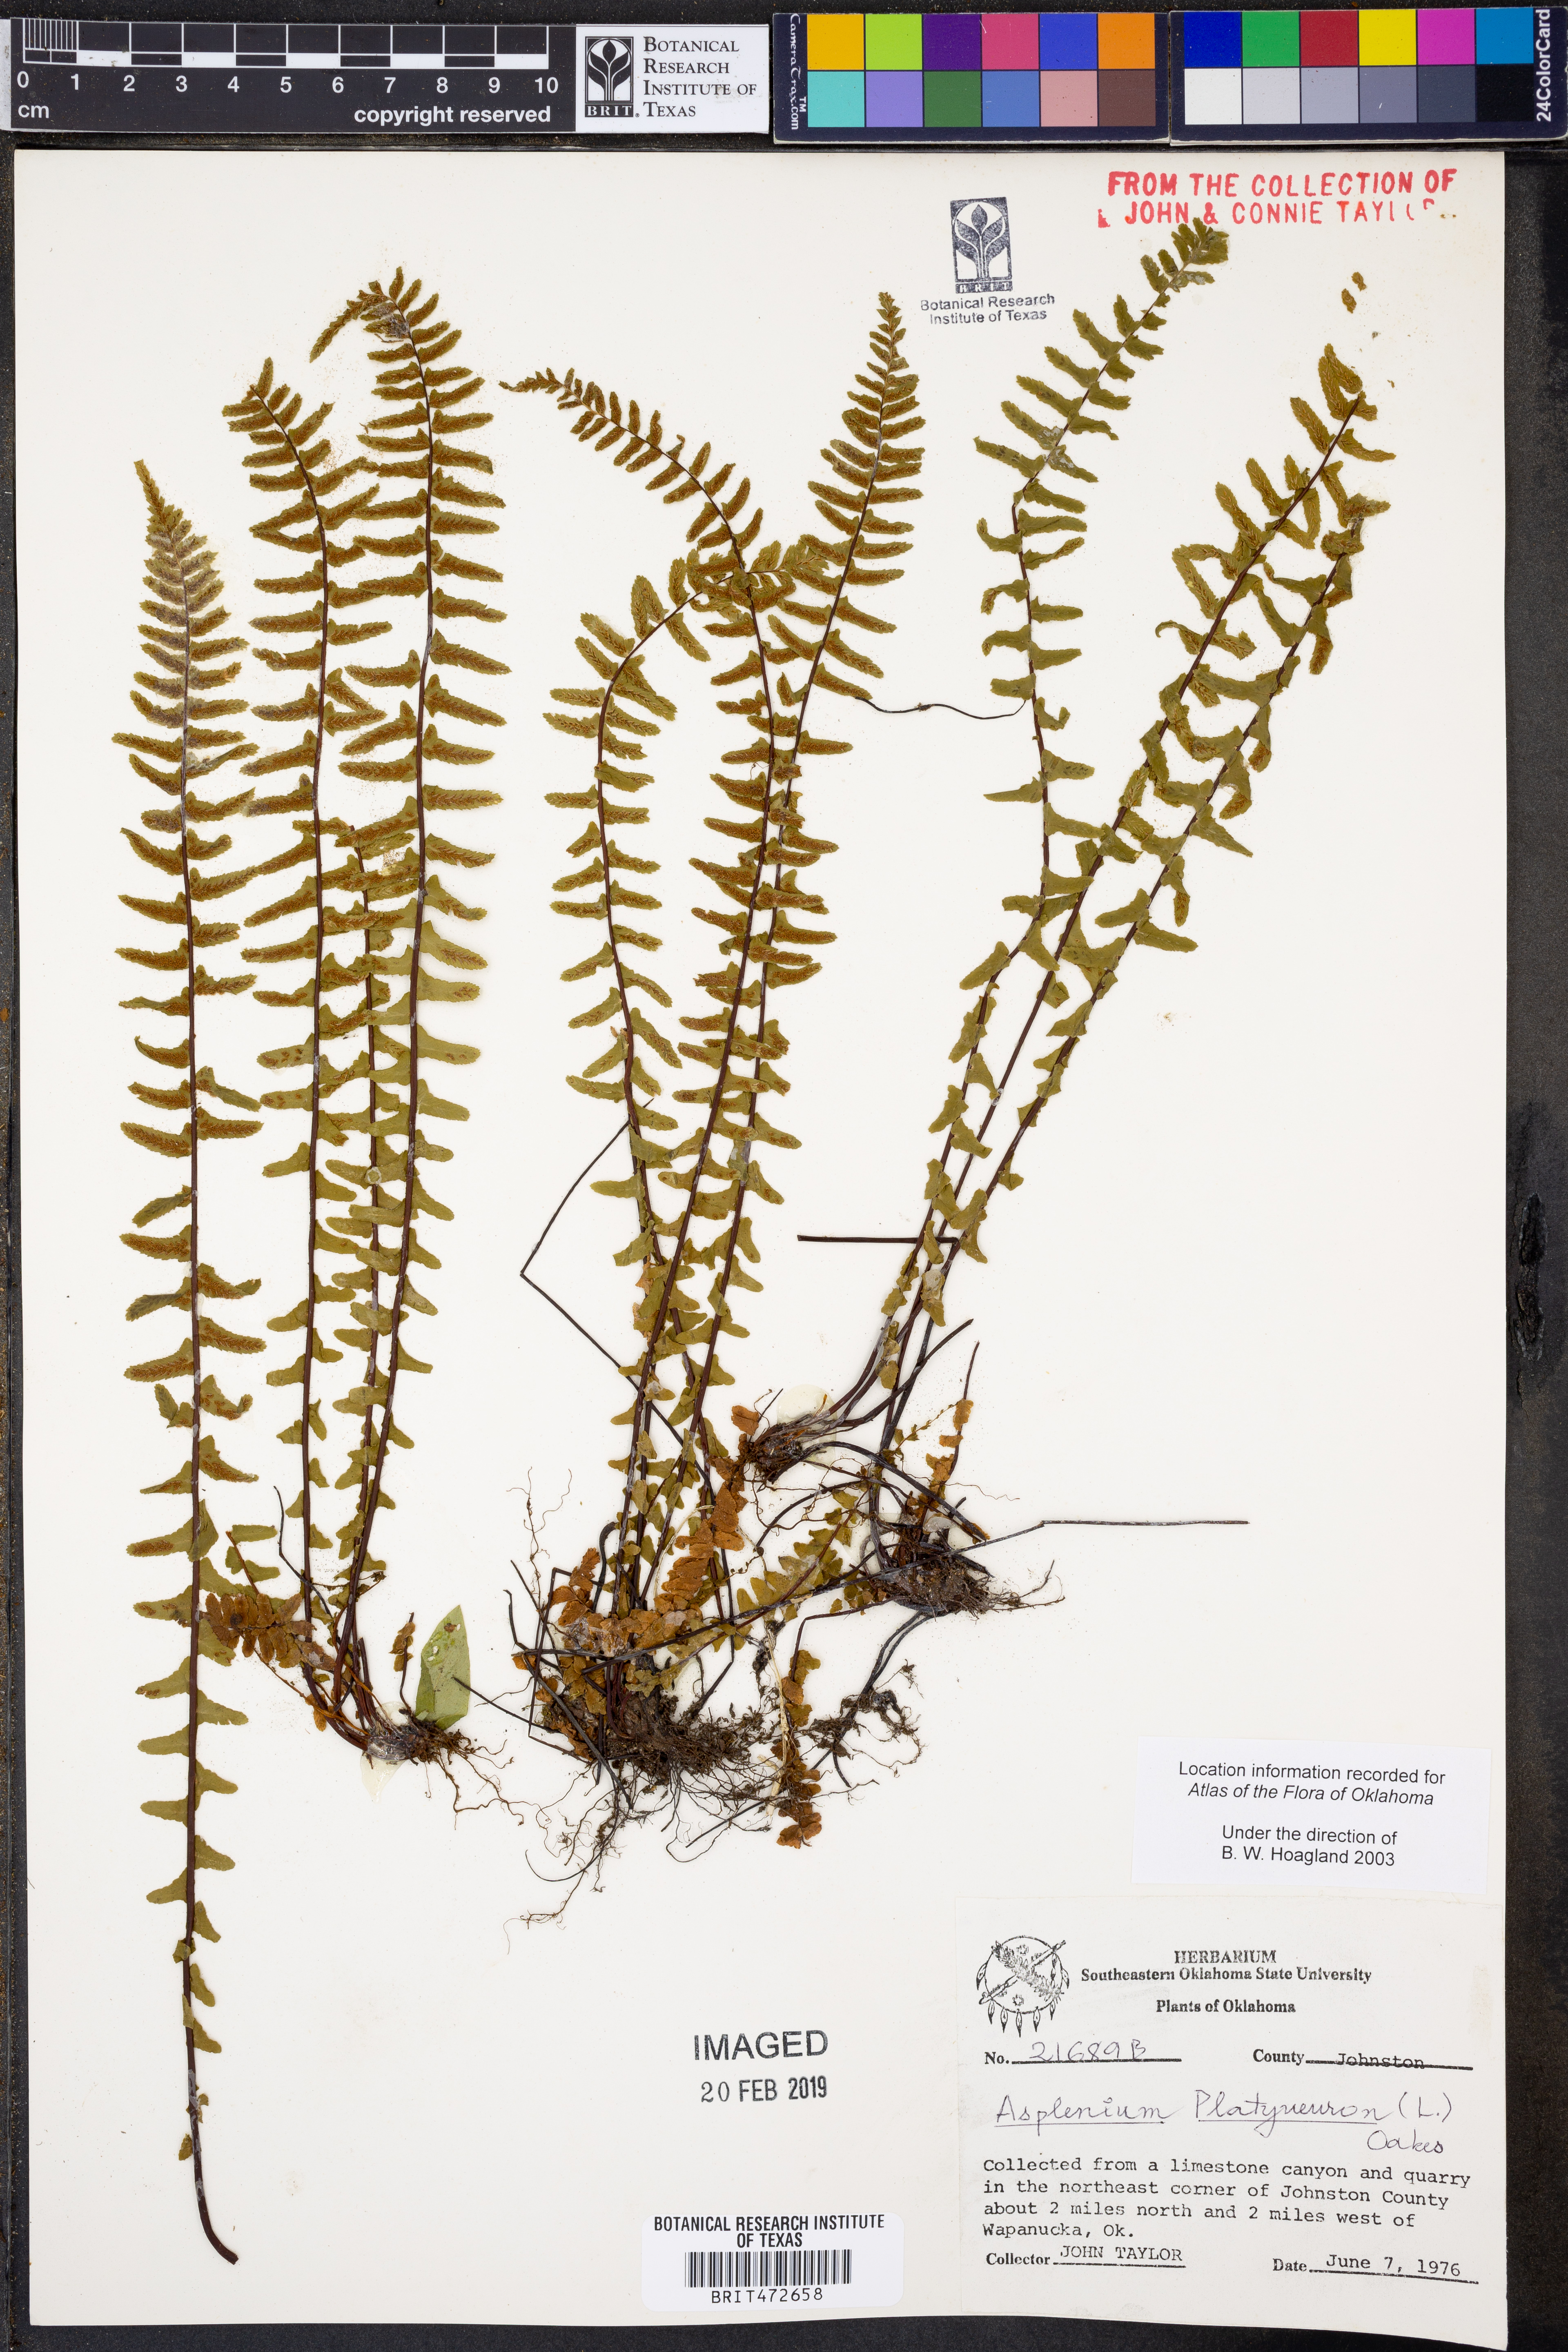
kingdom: Plantae
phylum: Tracheophyta
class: Polypodiopsida
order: Polypodiales
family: Aspleniaceae
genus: Asplenium
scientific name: Asplenium platyneuron
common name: Ebony spleenwort
